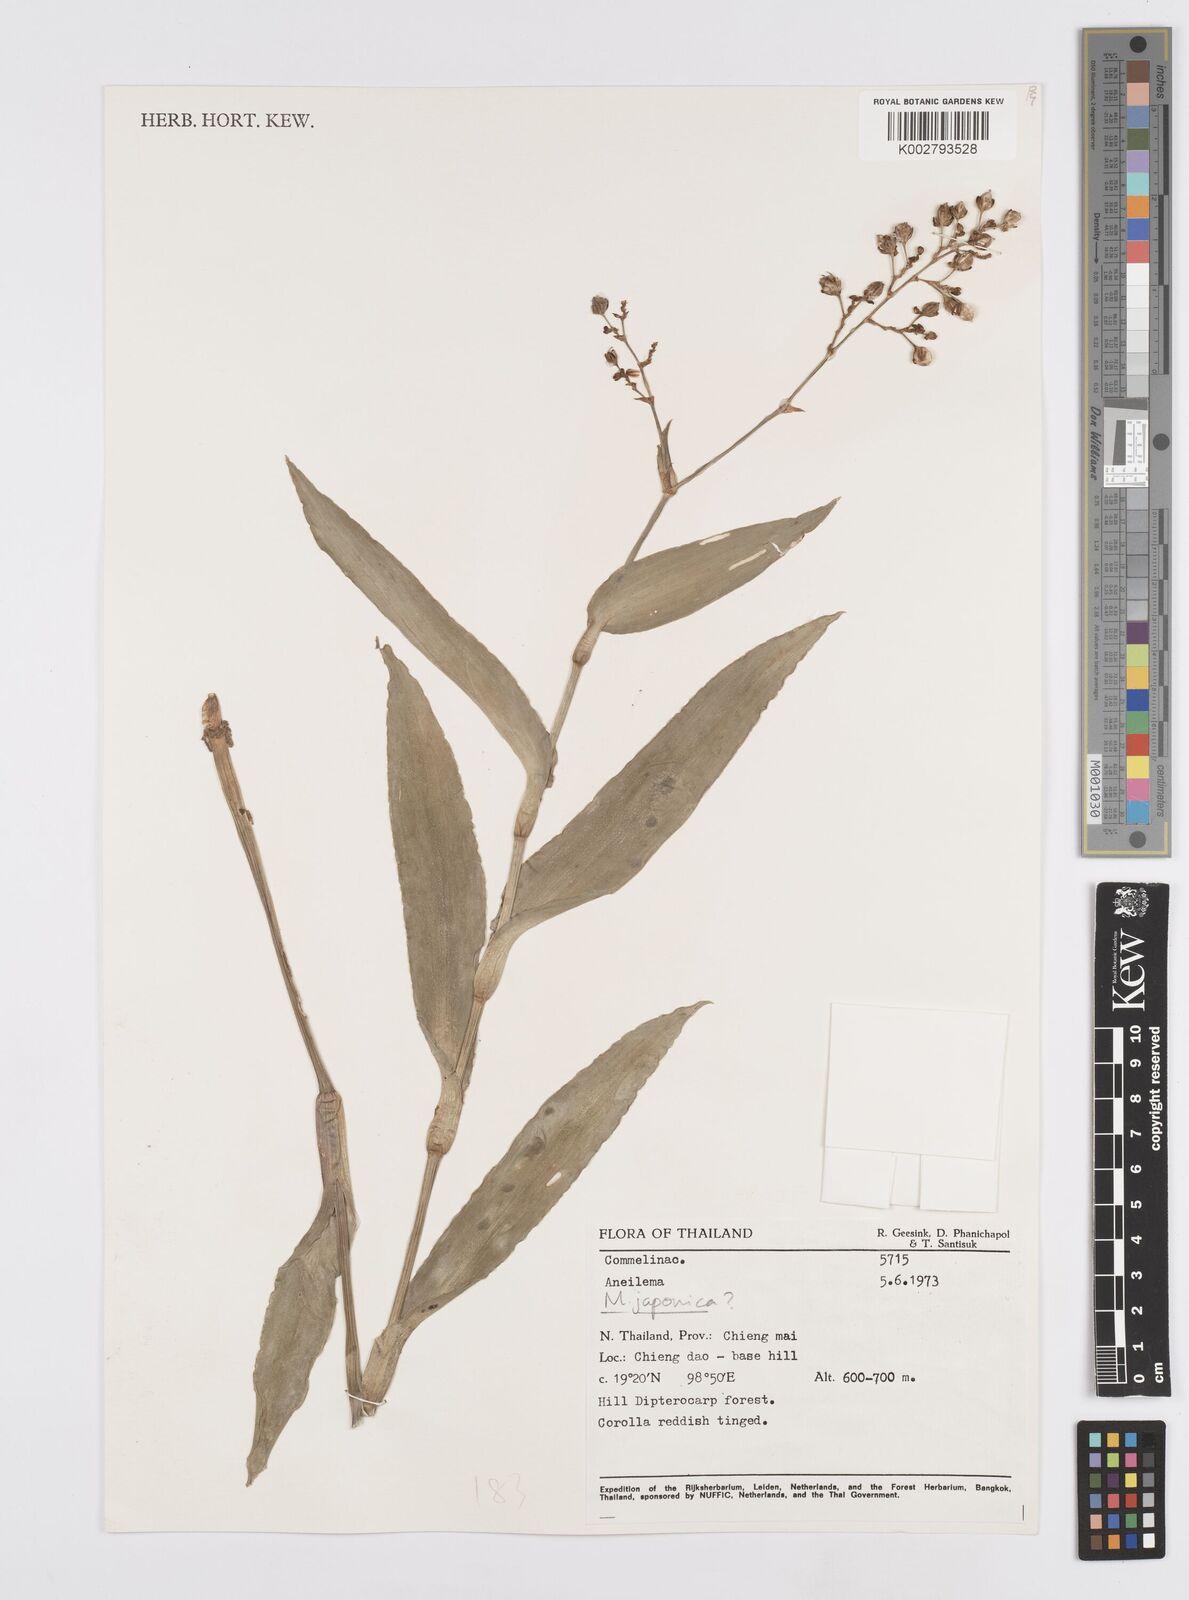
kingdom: Plantae
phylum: Tracheophyta
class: Liliopsida
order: Commelinales
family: Commelinaceae
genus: Murdannia
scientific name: Murdannia
